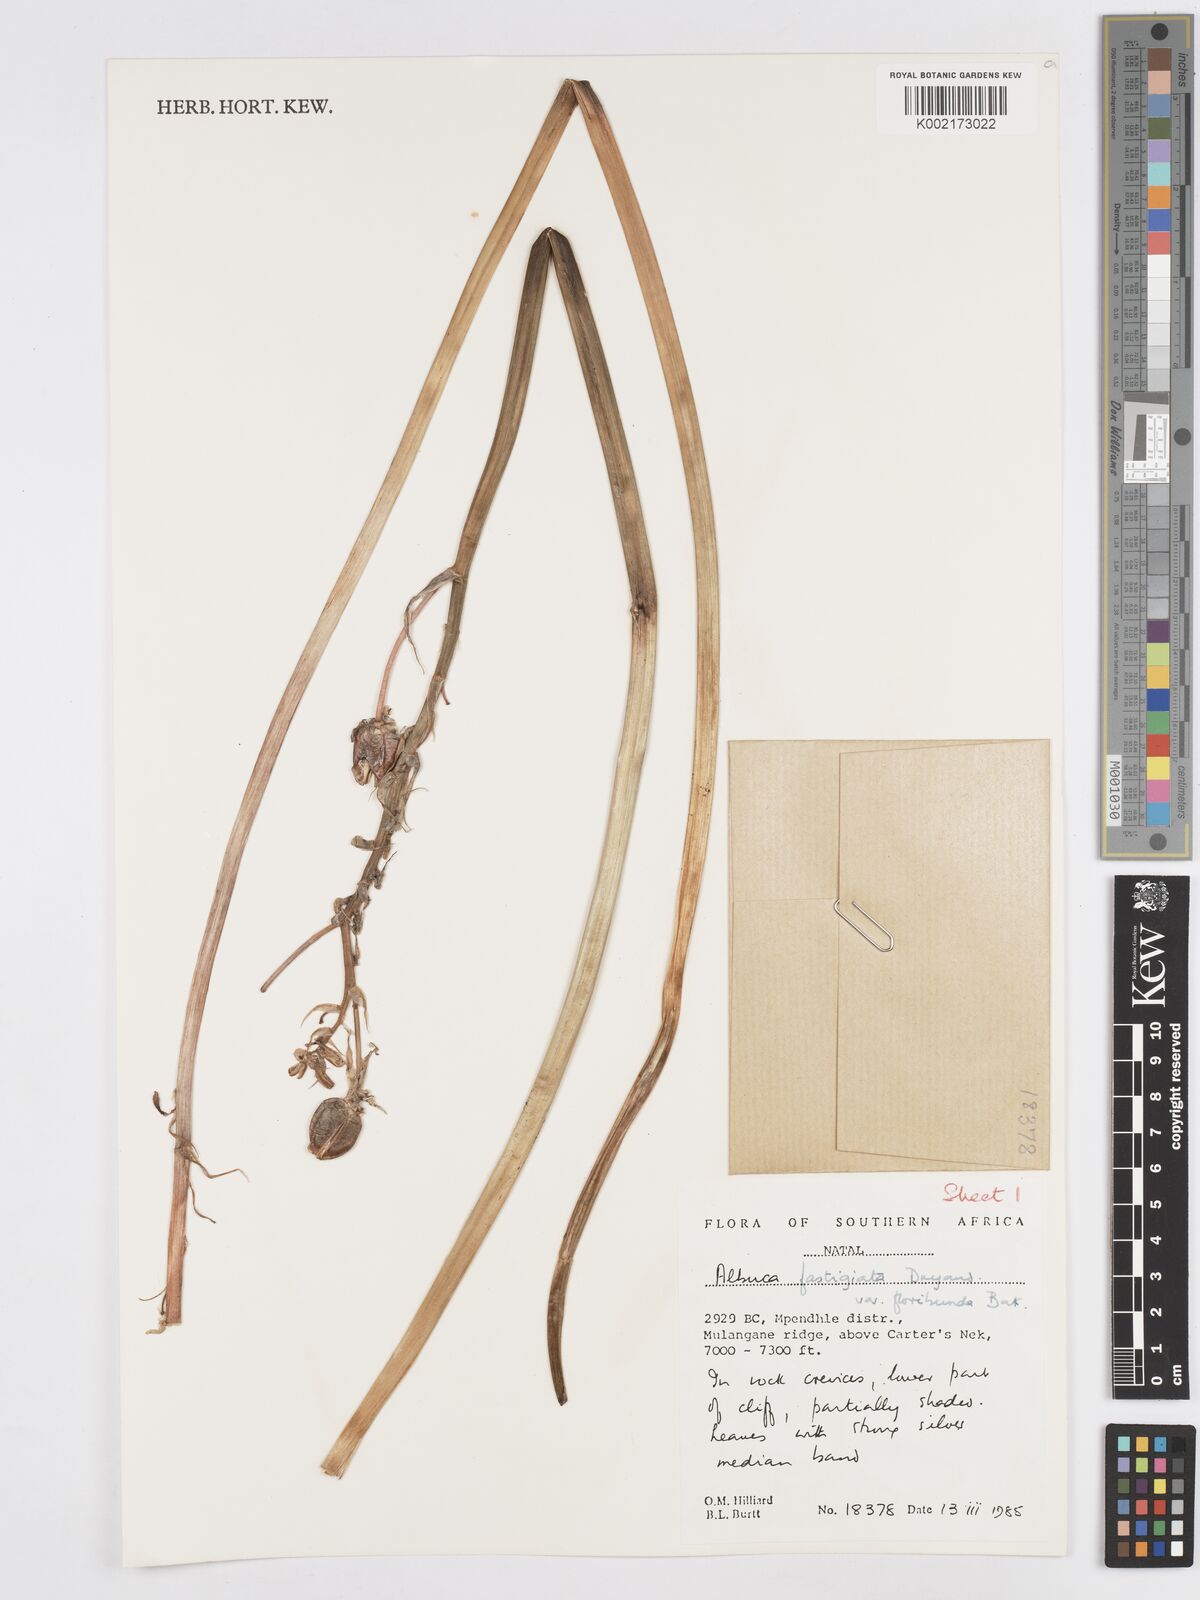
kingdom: Plantae
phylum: Tracheophyta
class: Liliopsida
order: Asparagales
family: Asparagaceae
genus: Albuca
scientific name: Albuca tortuosa
